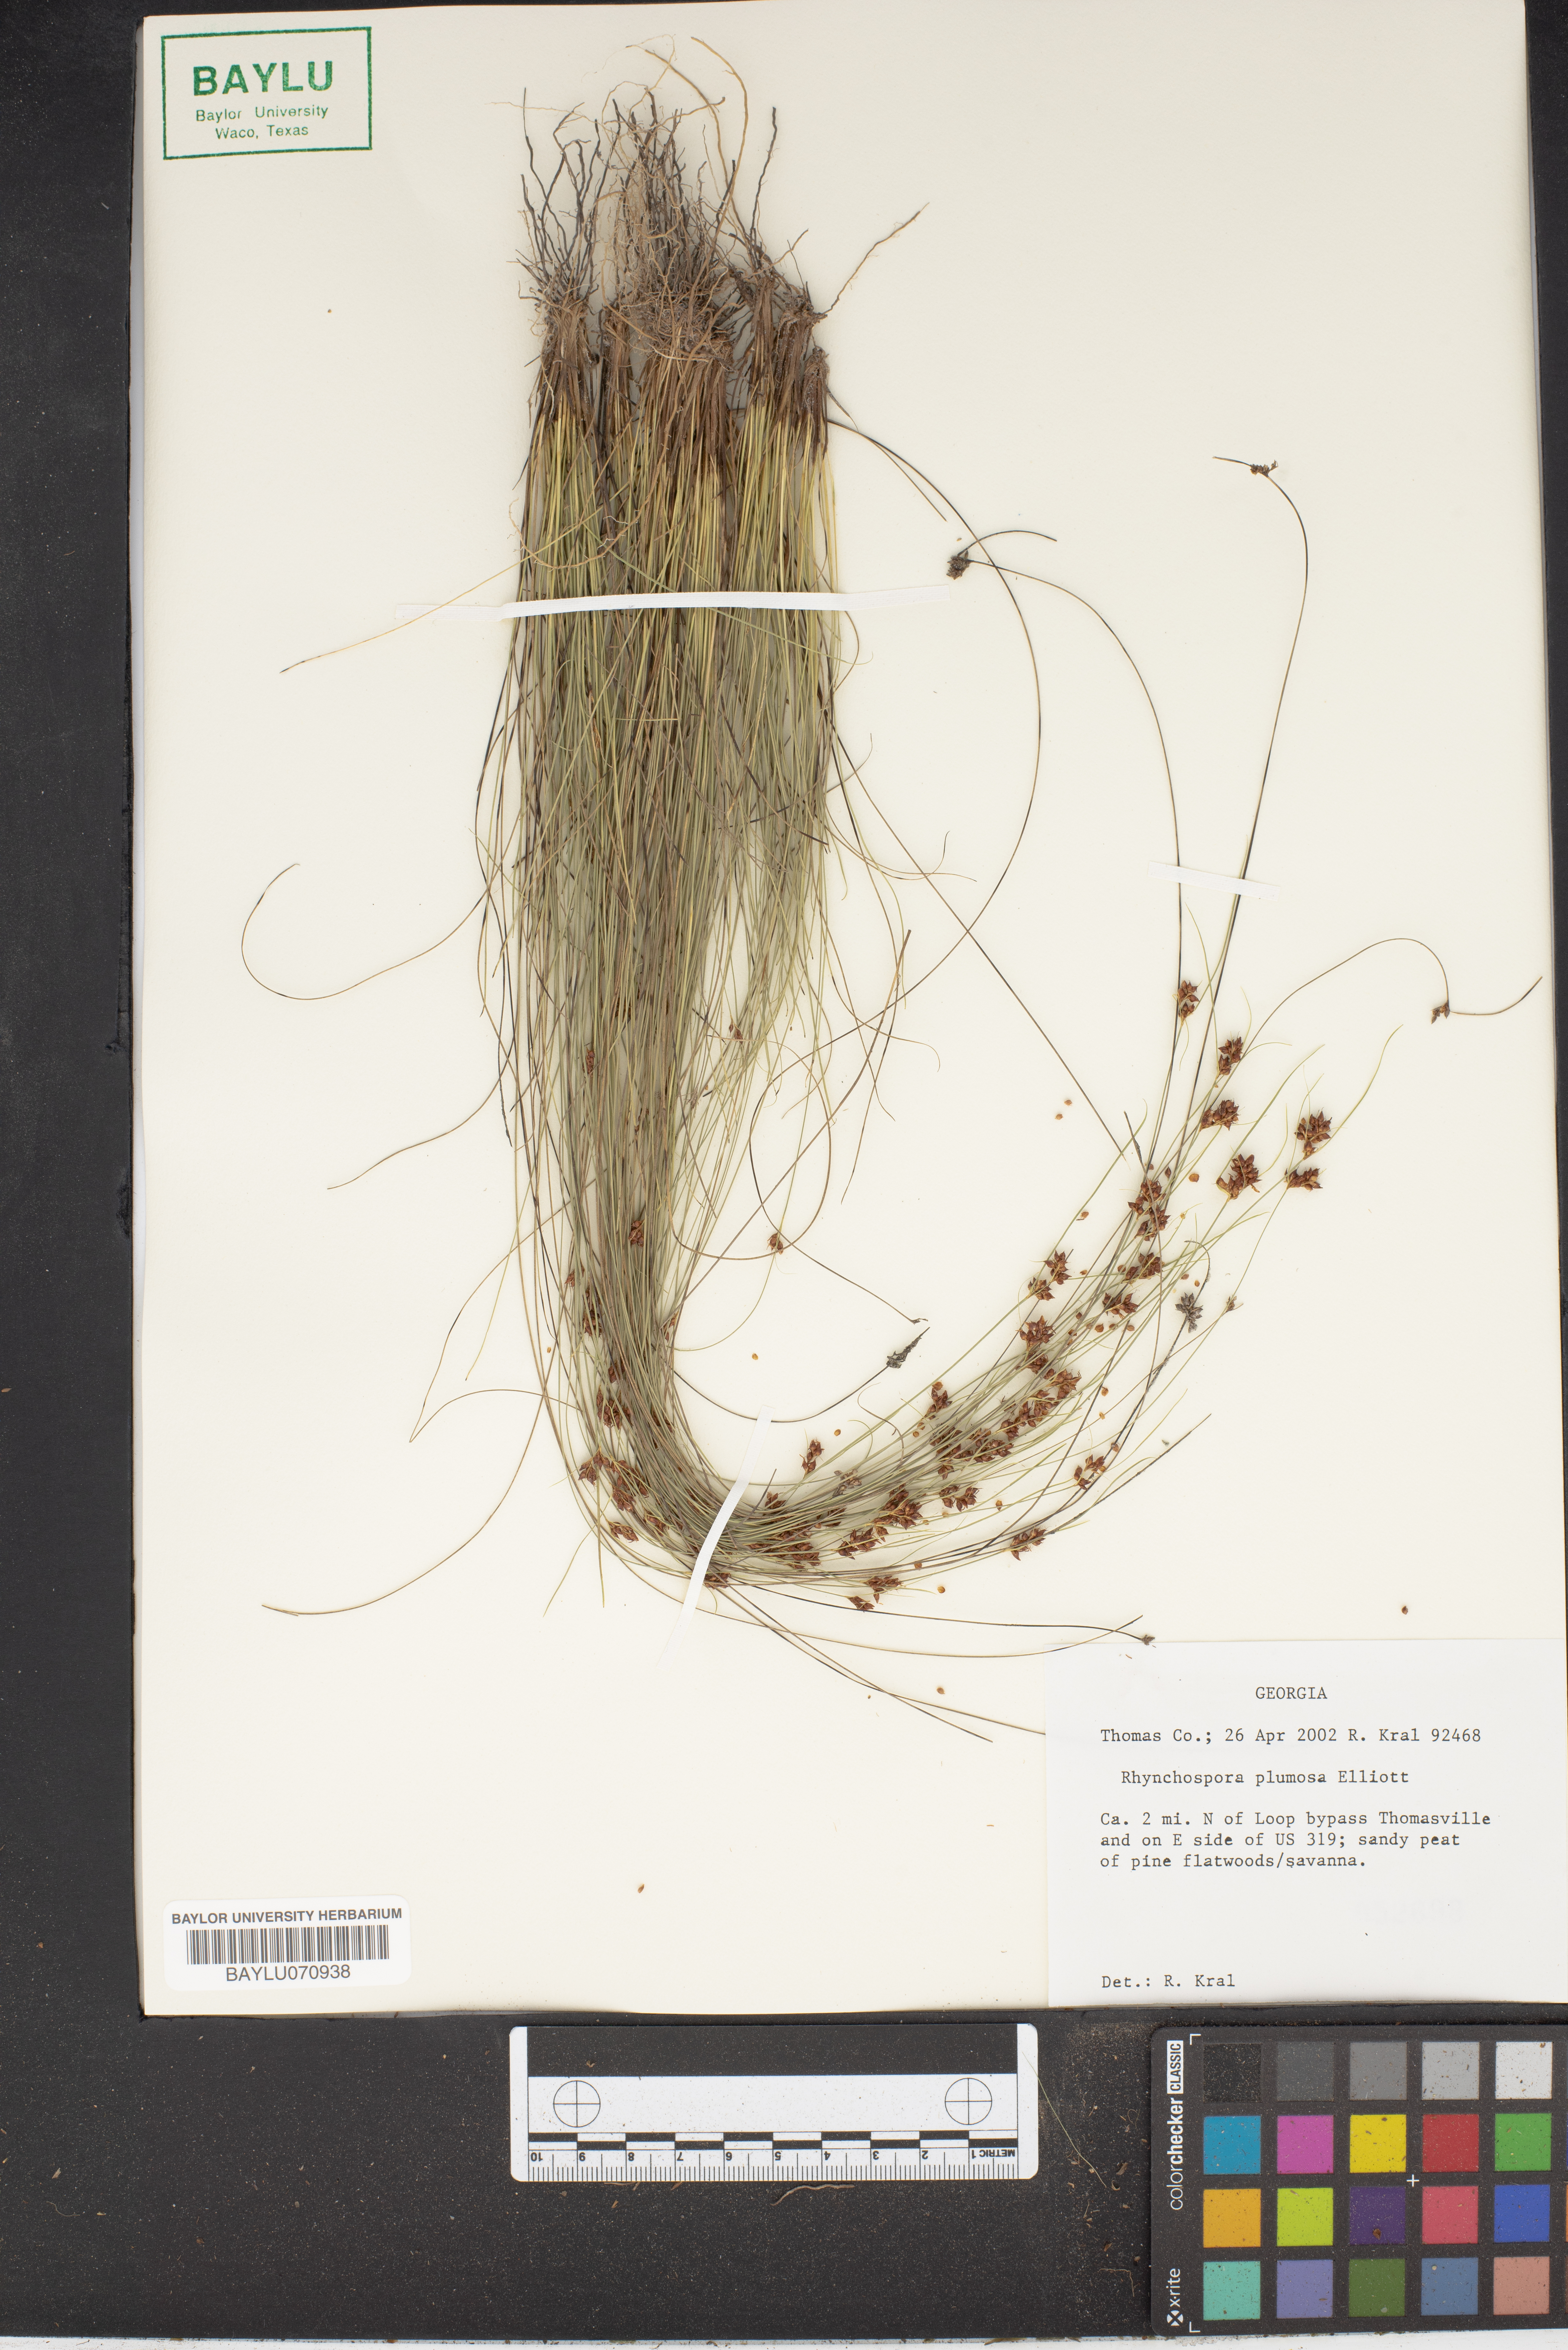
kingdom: Plantae
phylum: Tracheophyta
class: Liliopsida
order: Poales
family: Cyperaceae
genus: Rhynchospora
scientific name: Rhynchospora plumosa
